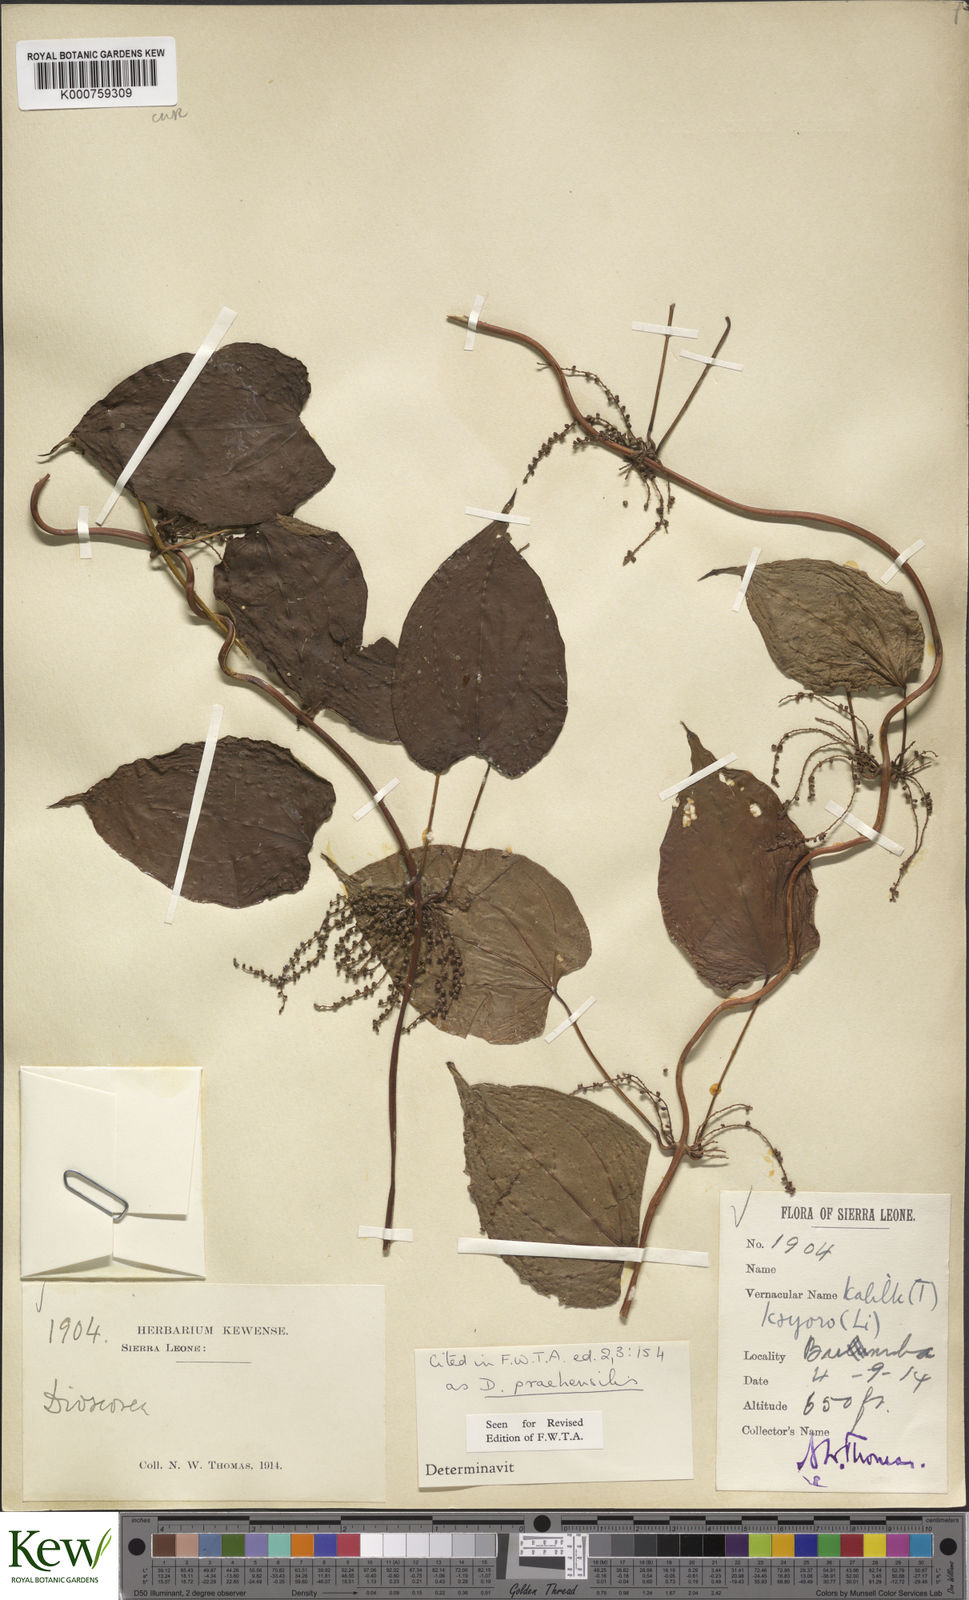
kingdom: Plantae
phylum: Tracheophyta
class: Liliopsida
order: Dioscoreales
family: Dioscoreaceae
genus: Dioscorea
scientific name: Dioscorea praehensilis
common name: Bush yam
